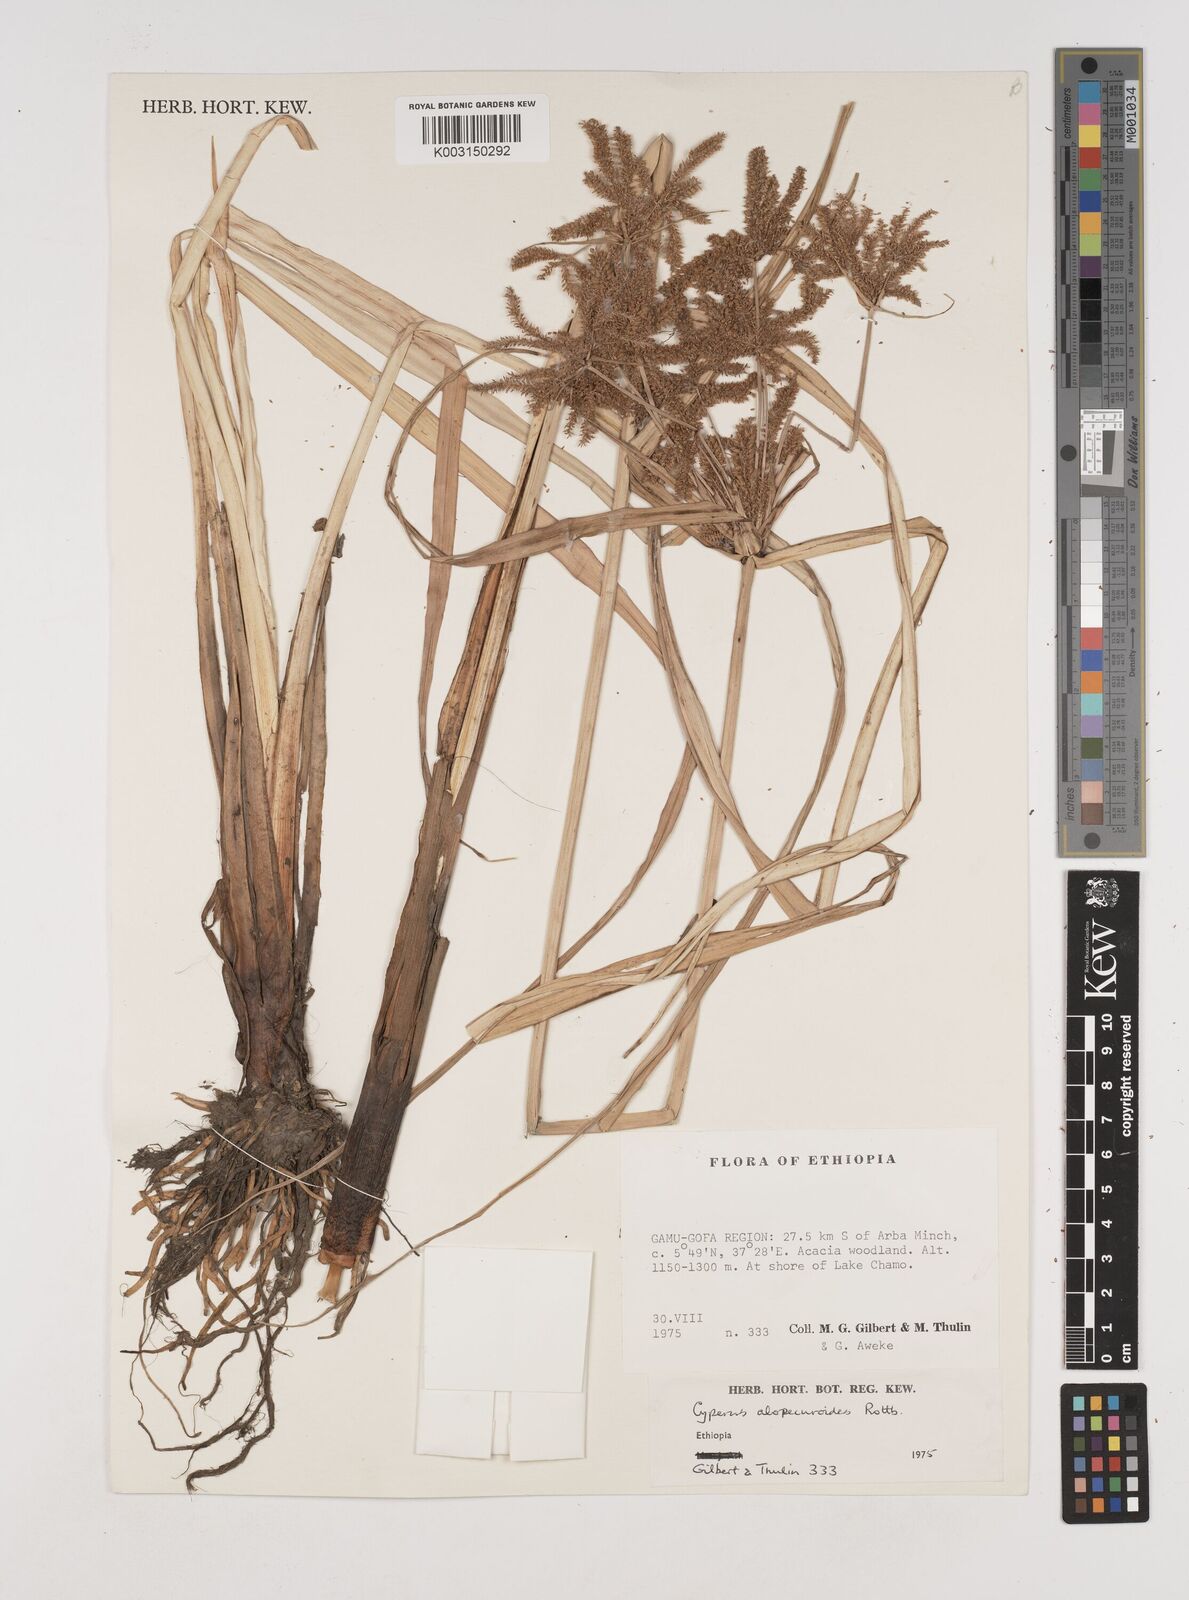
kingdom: Plantae
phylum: Tracheophyta
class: Liliopsida
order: Poales
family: Cyperaceae
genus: Cyperus
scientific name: Cyperus alopecuroides
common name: Foxtail flatsedge
